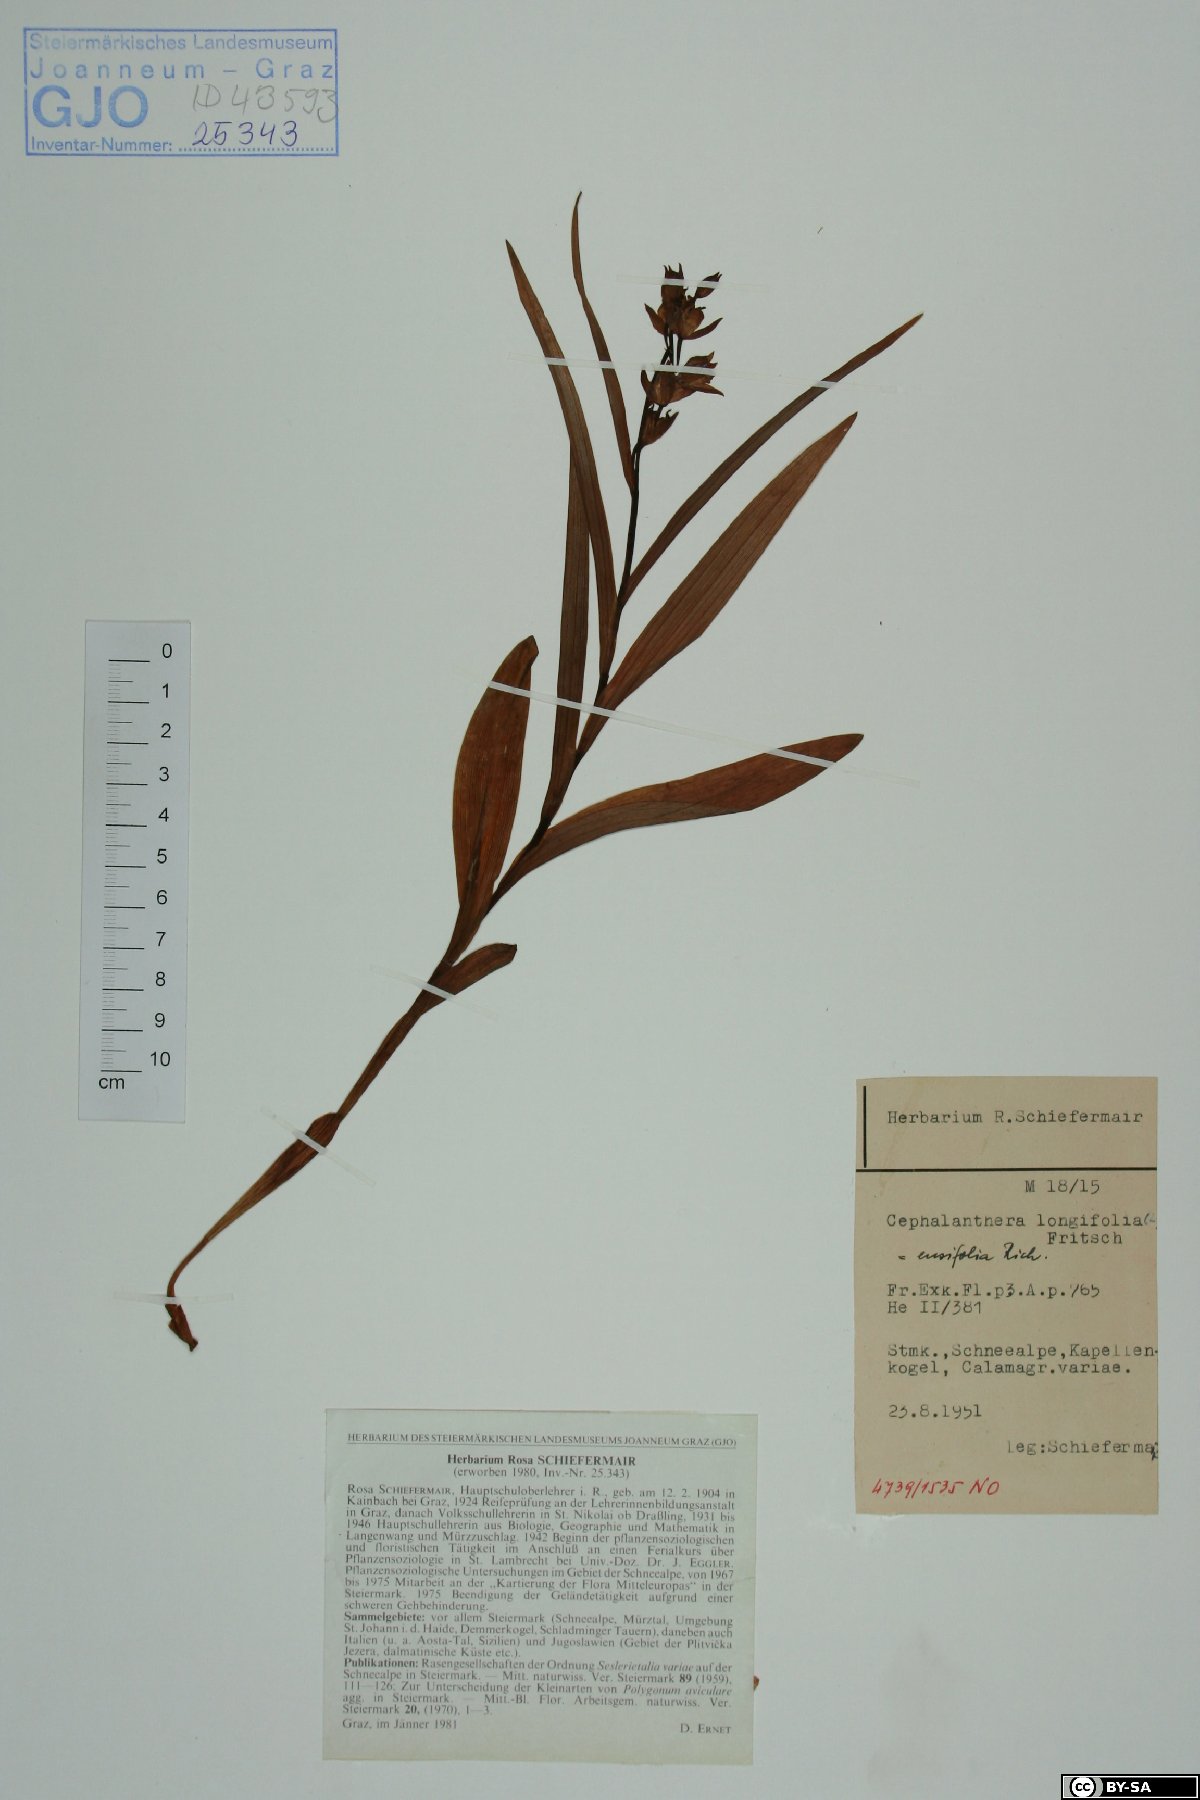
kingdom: Plantae
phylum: Tracheophyta
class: Liliopsida
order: Asparagales
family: Orchidaceae
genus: Cephalanthera
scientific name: Cephalanthera longifolia
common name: Narrow-leaved helleborine
